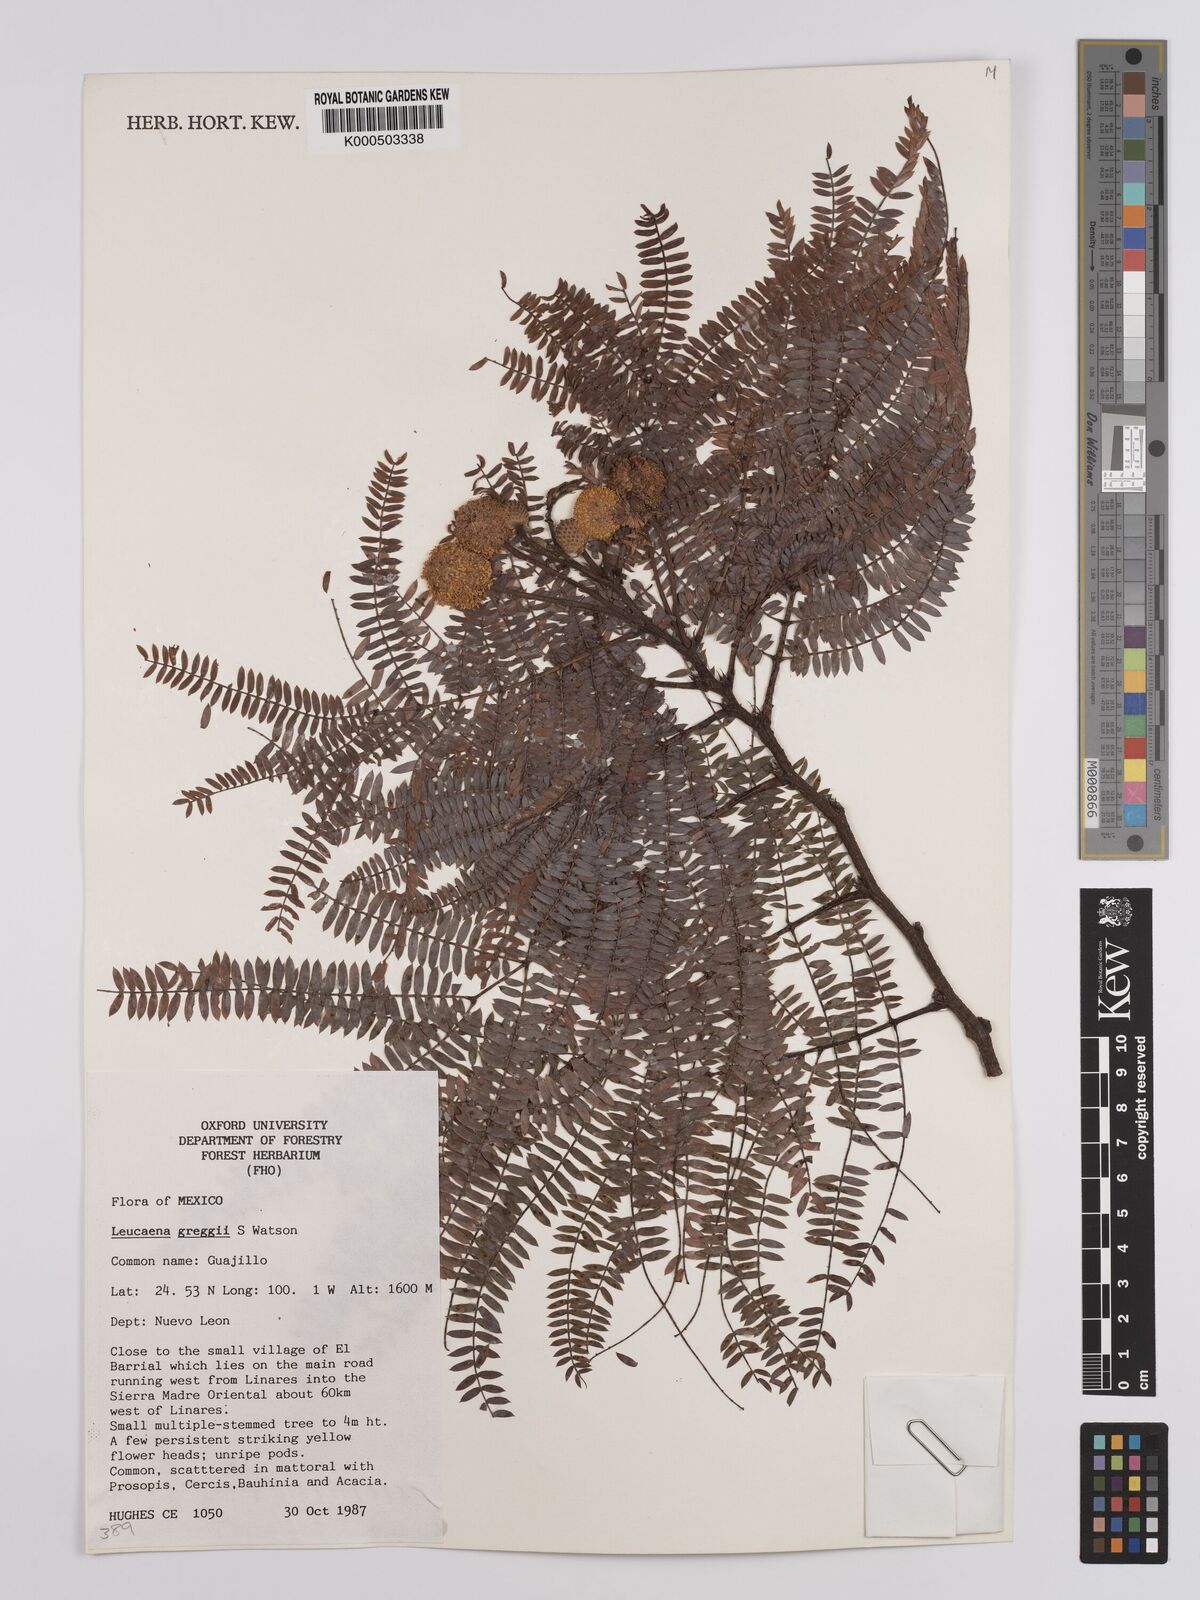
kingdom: Plantae
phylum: Tracheophyta
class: Magnoliopsida
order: Fabales
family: Fabaceae
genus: Leucaena
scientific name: Leucaena greggii
